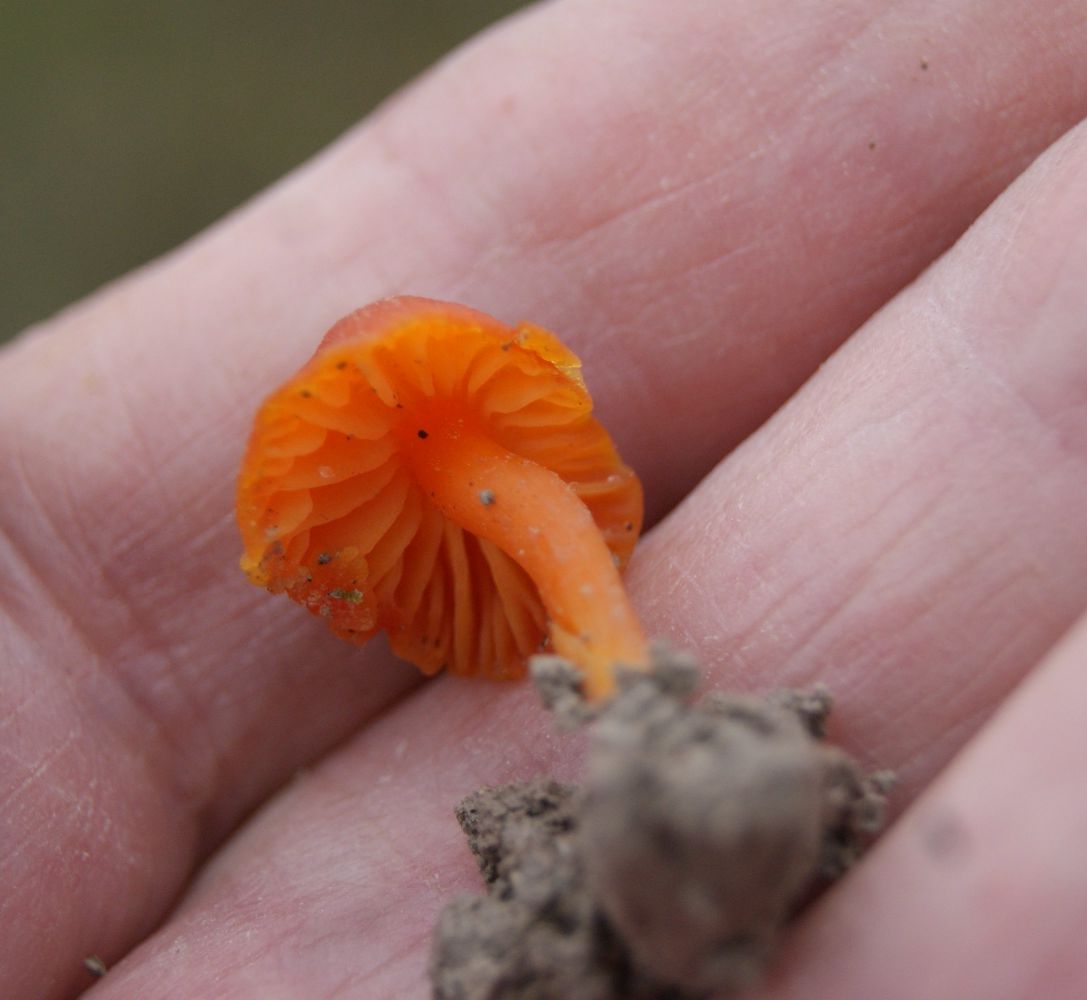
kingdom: Fungi
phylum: Basidiomycota
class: Agaricomycetes
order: Agaricales
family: Hygrophoraceae
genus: Hygrocybe
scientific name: Hygrocybe mucronella
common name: bitter vokshat
